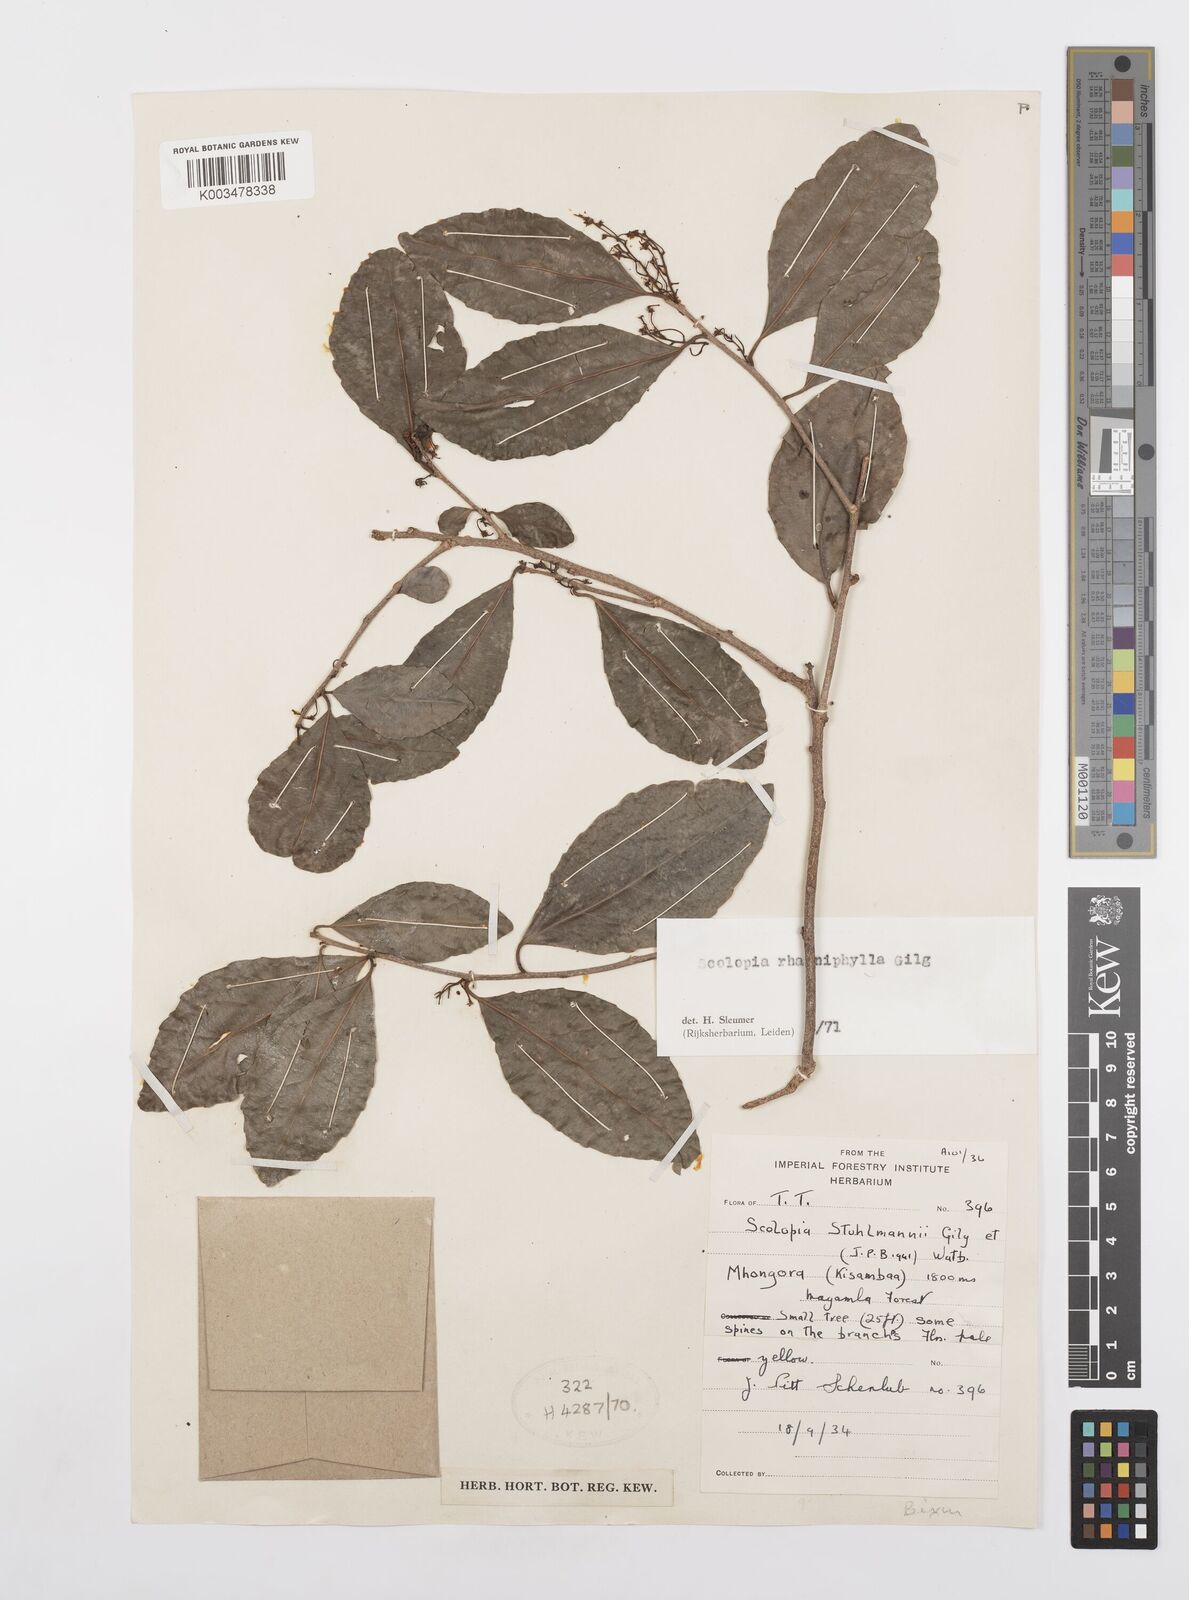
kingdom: Plantae
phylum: Tracheophyta
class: Magnoliopsida
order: Malpighiales
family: Salicaceae
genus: Scolopia
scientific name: Scolopia rhamniphylla
